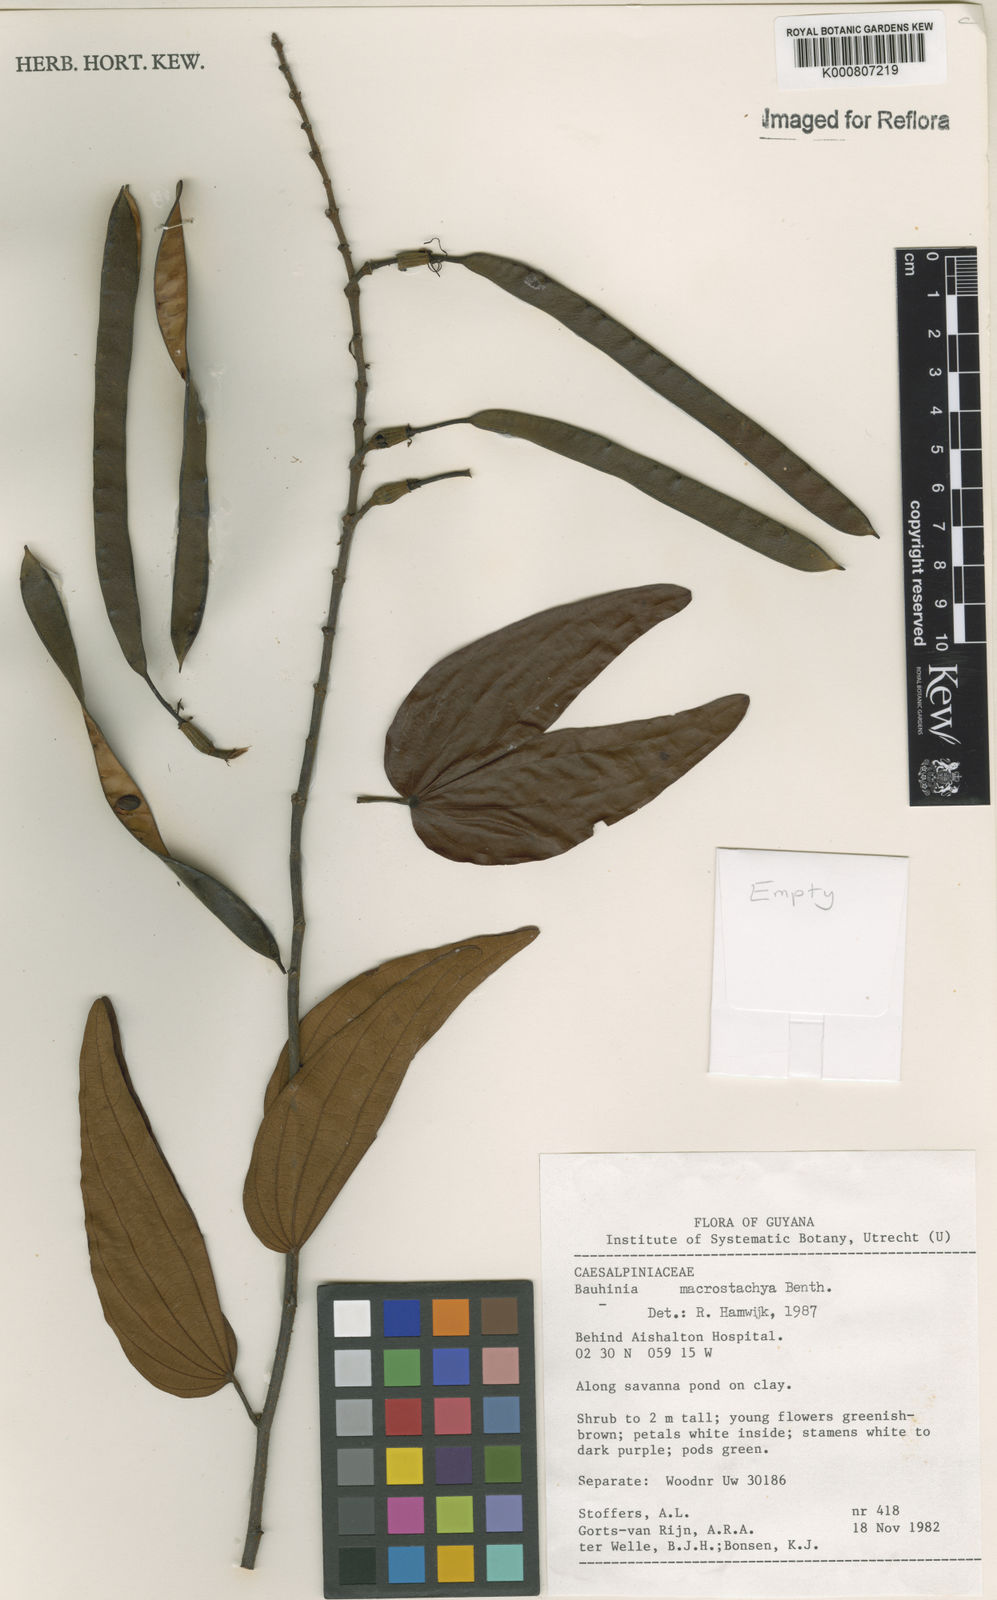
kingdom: Plantae
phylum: Tracheophyta
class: Magnoliopsida
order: Fabales
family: Fabaceae
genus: Bauhinia
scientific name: Bauhinia ungulata
